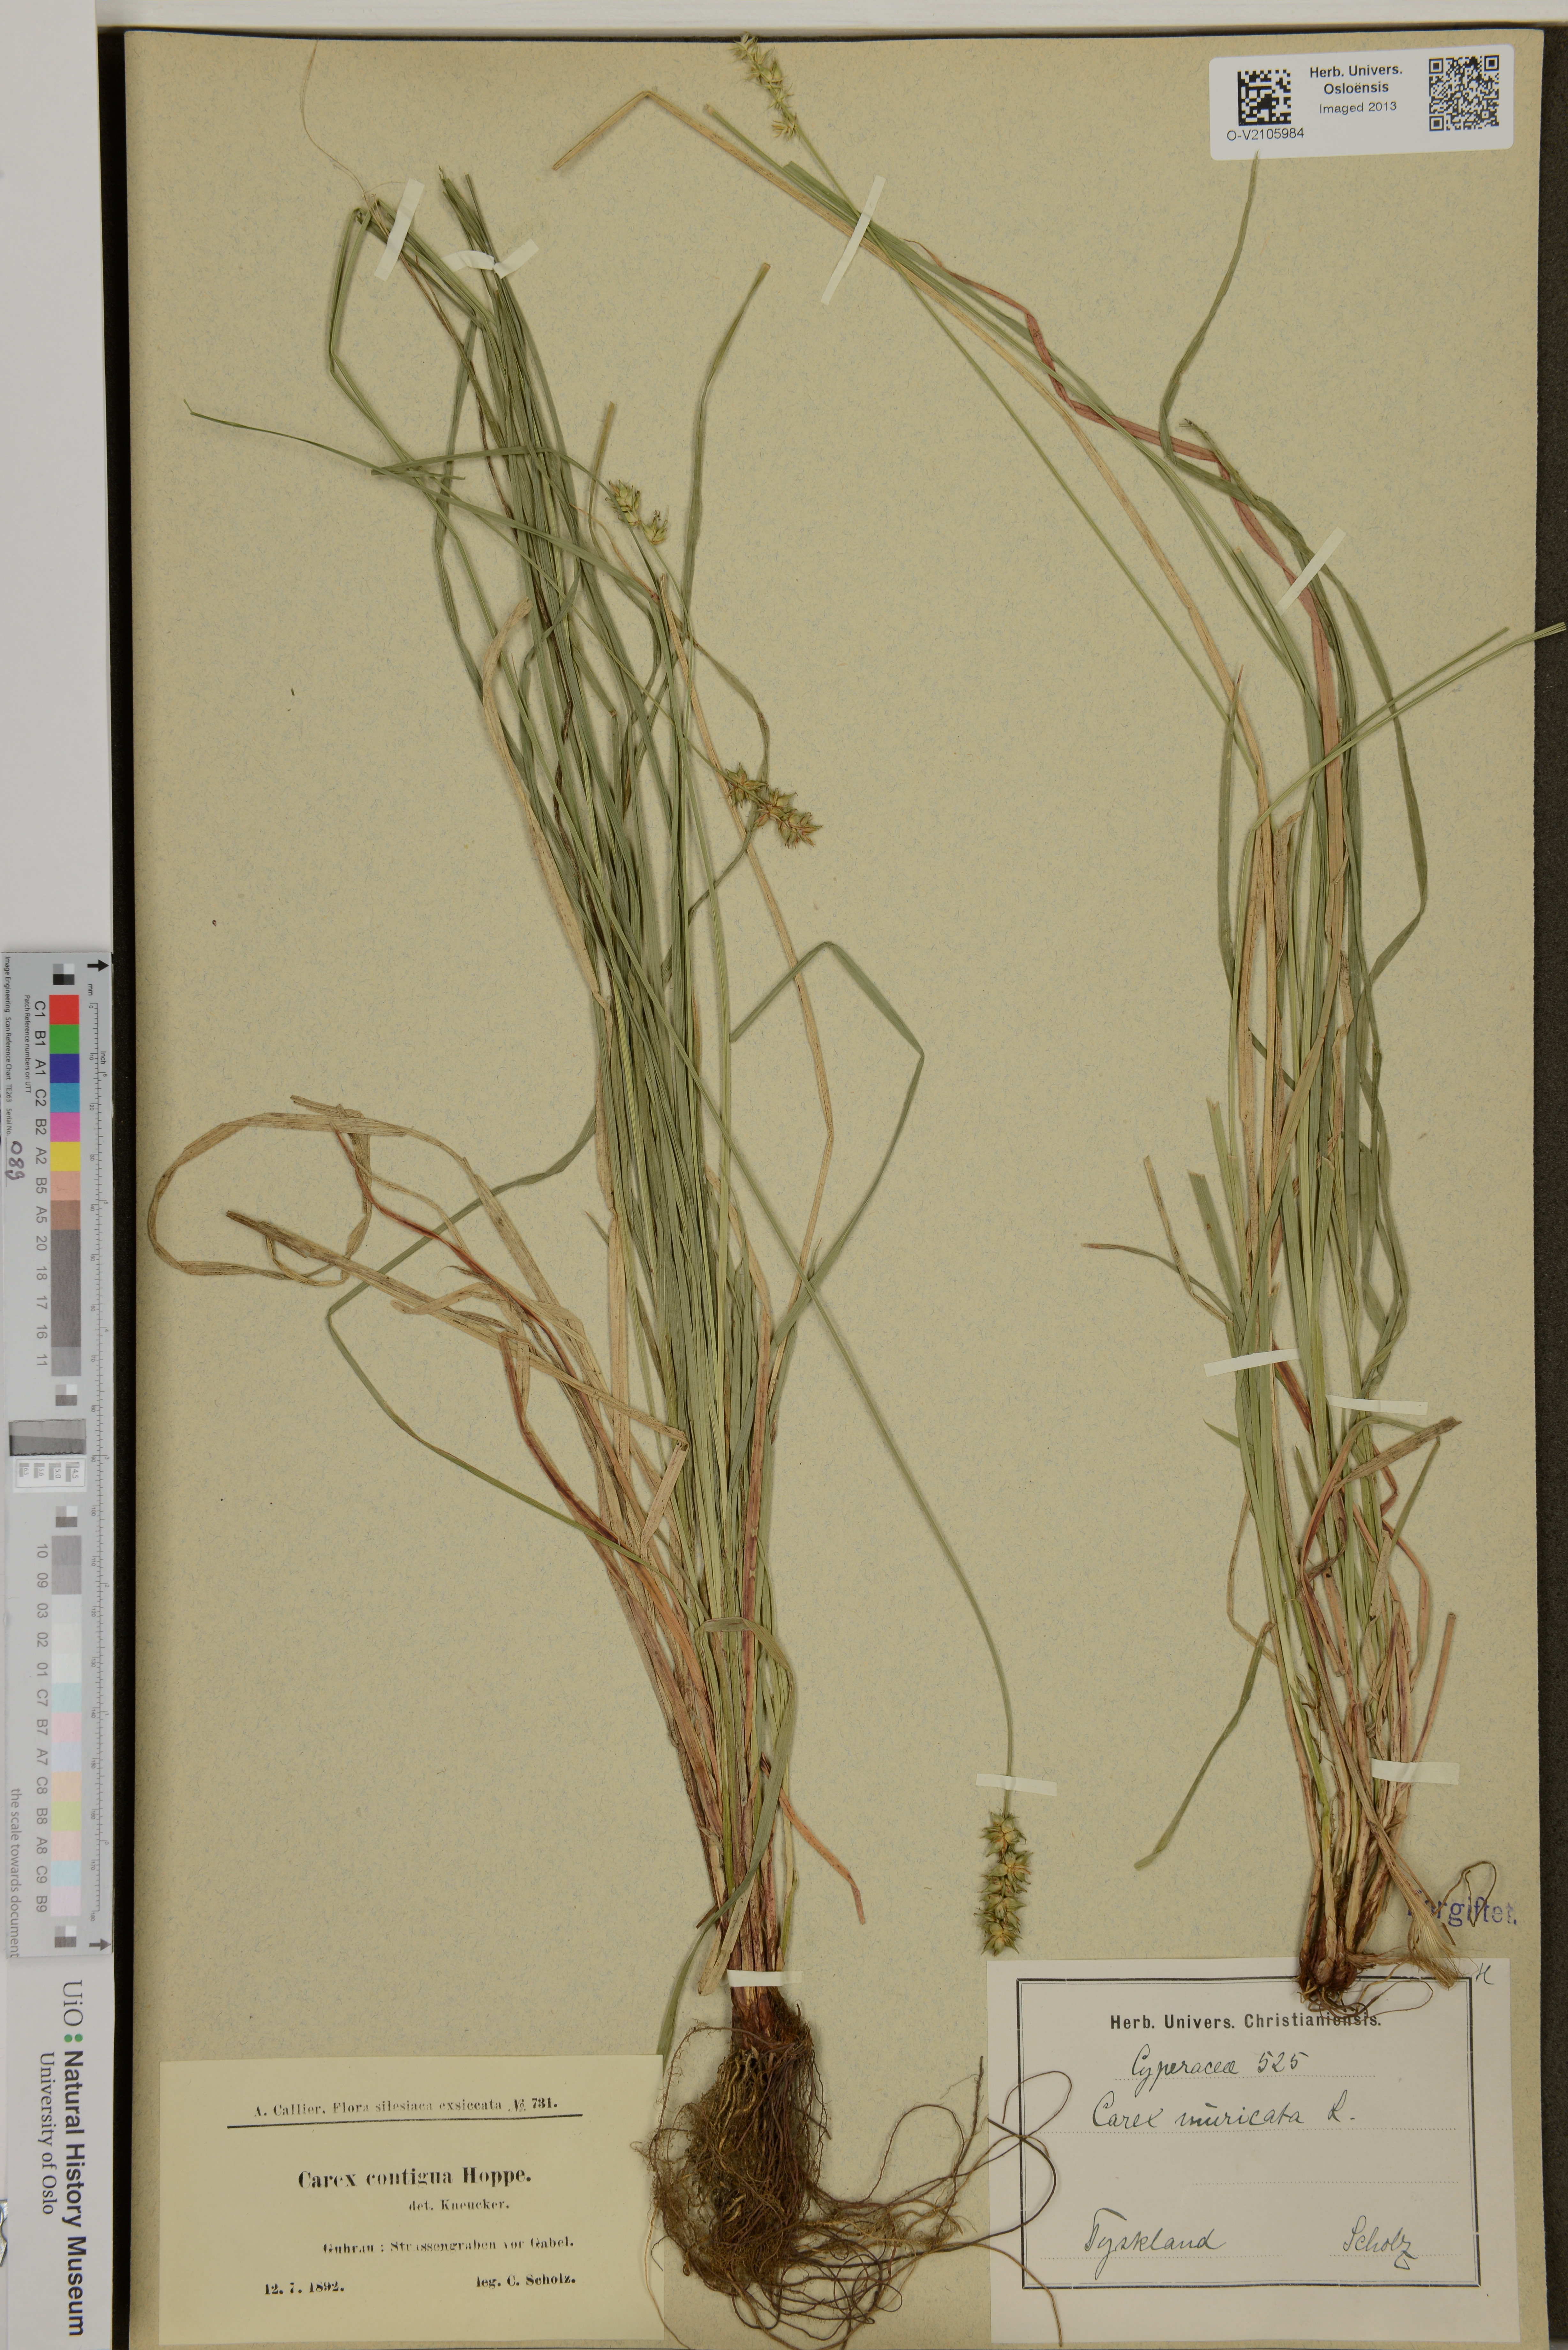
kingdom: Plantae
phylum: Tracheophyta
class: Liliopsida
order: Poales
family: Cyperaceae
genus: Carex
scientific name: Carex muricata
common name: Rough sedge
